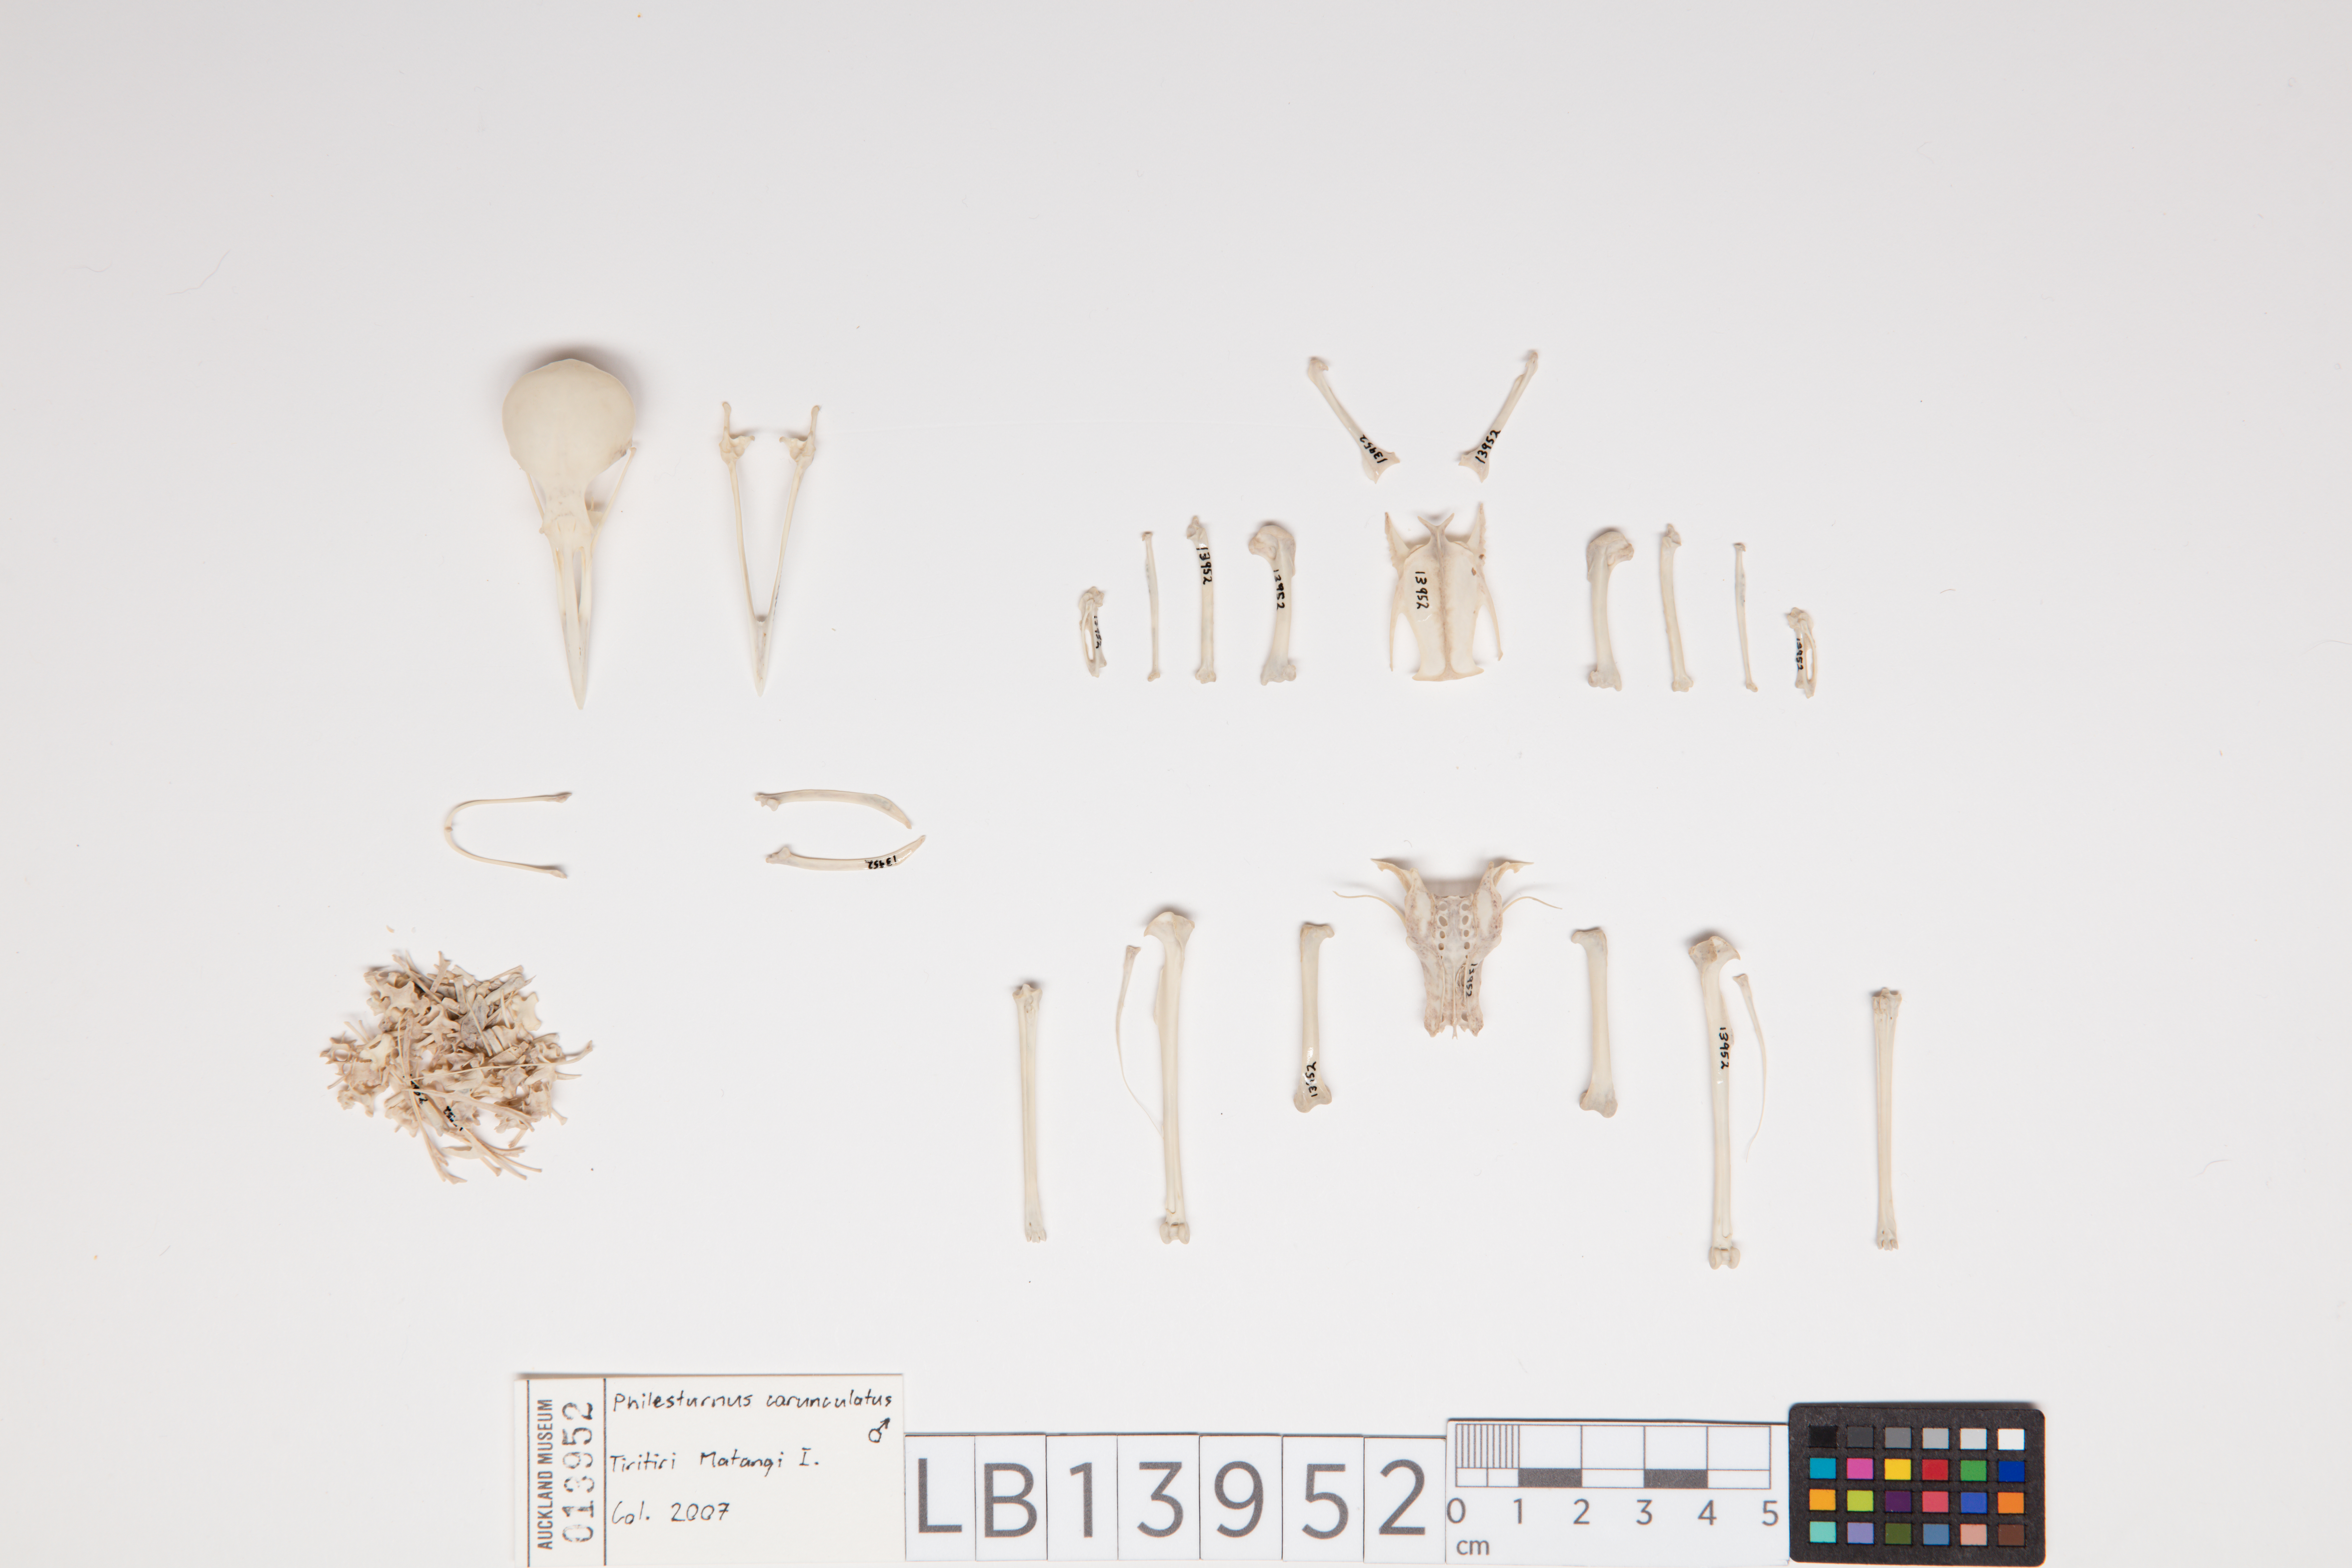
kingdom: Animalia
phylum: Chordata
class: Aves
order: Passeriformes
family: Callaeatidae
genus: Philesturnus
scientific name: Philesturnus carunculatus
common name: South island saddleback
